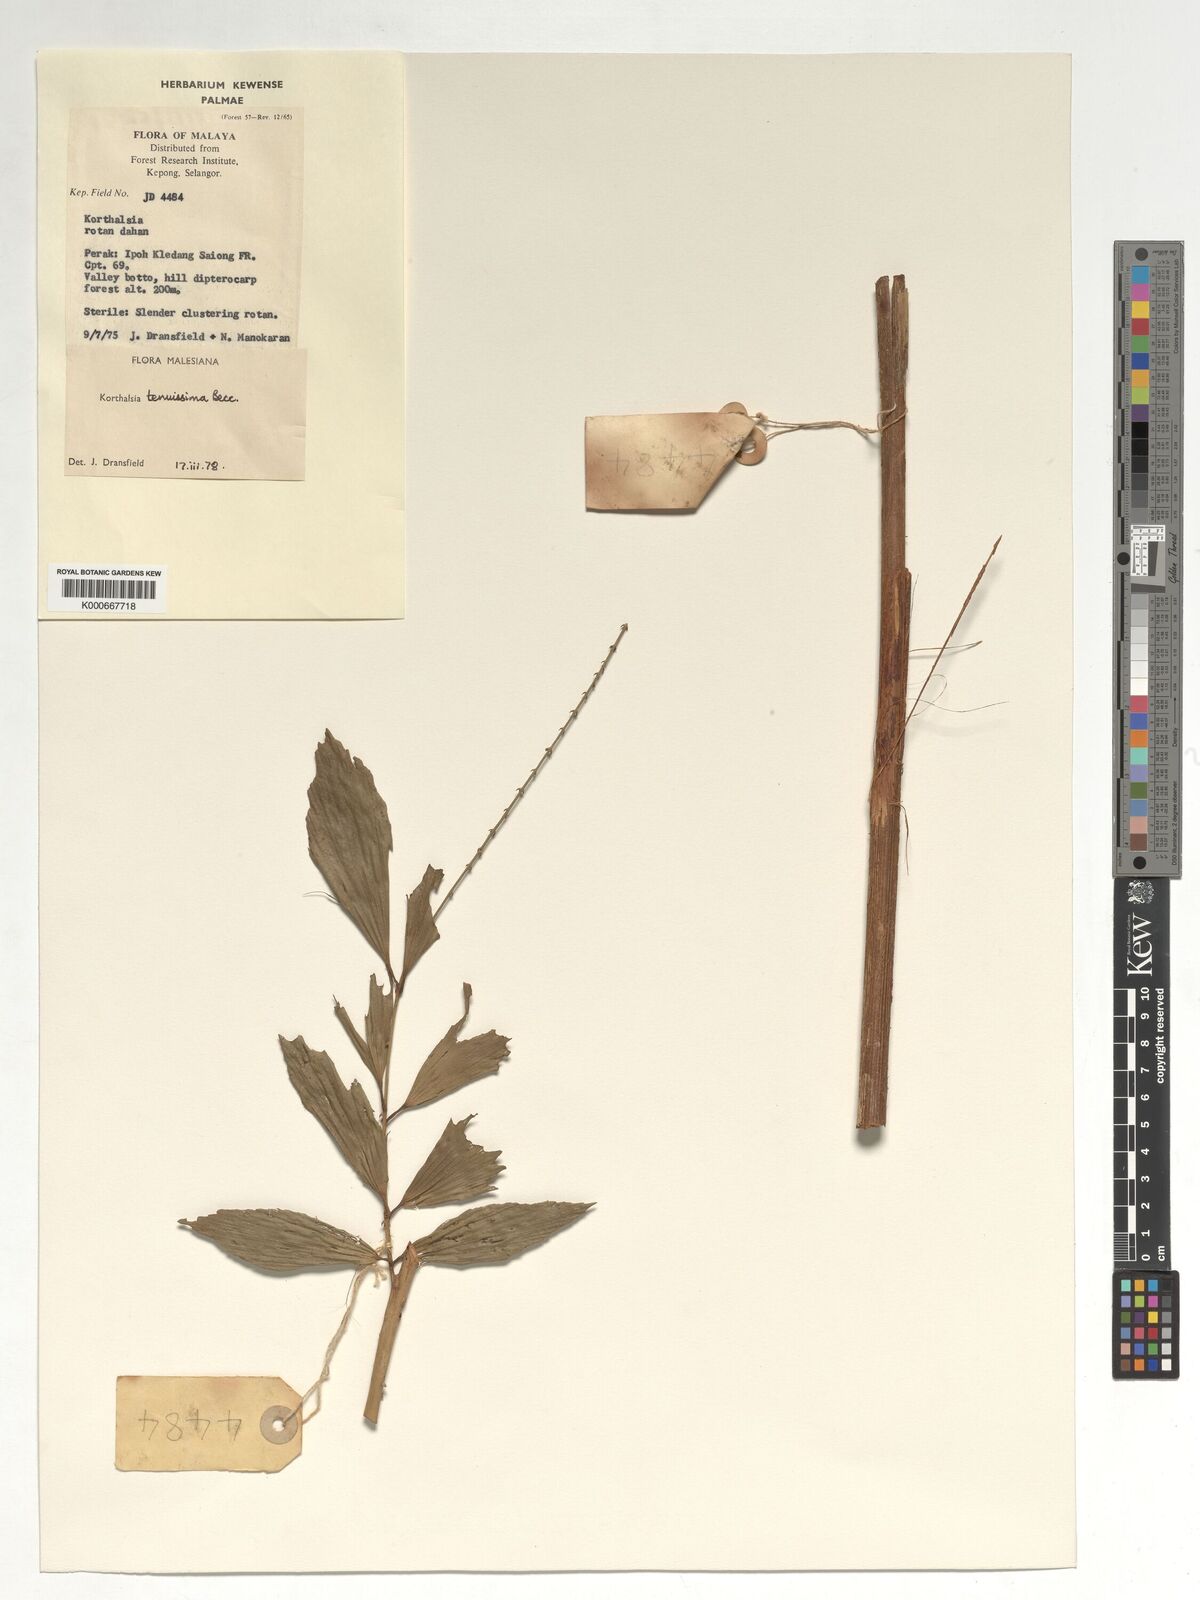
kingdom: Plantae
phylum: Tracheophyta
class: Liliopsida
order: Arecales
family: Arecaceae
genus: Korthalsia
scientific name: Korthalsia tenuissima
